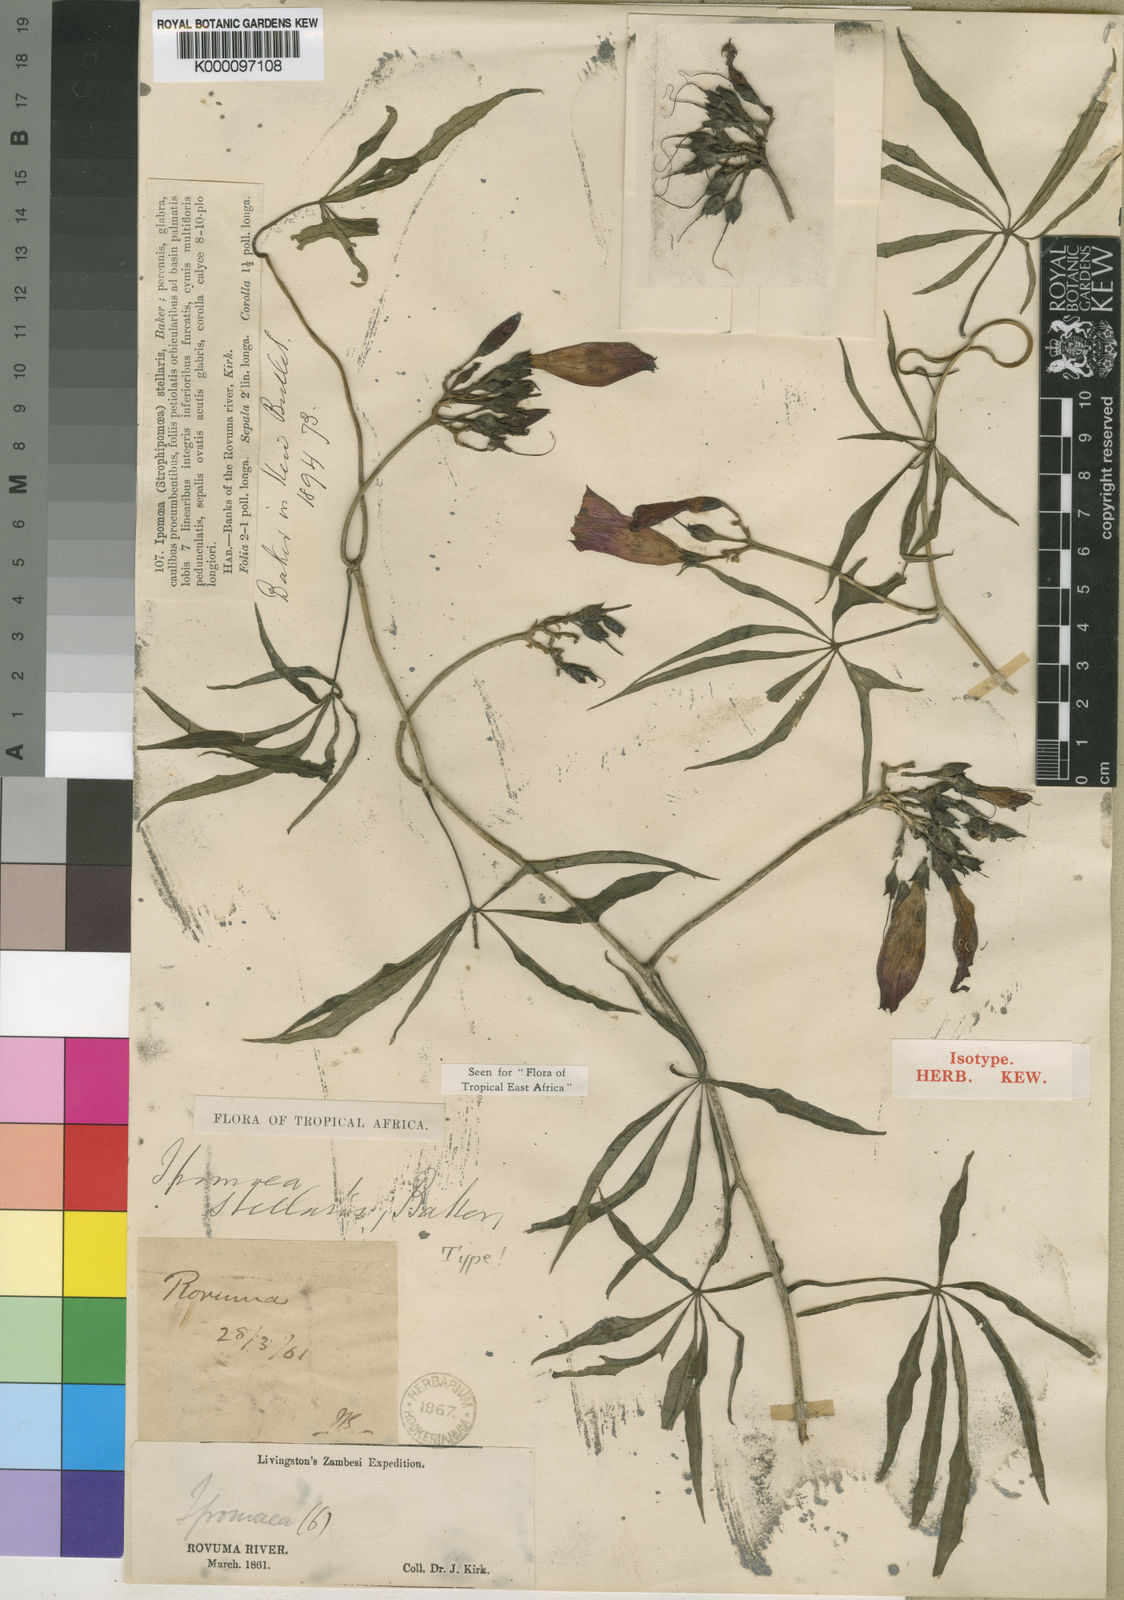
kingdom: Plantae
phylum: Tracheophyta
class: Magnoliopsida
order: Solanales
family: Convolvulaceae
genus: Ipomoea
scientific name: Ipomoea venosa
